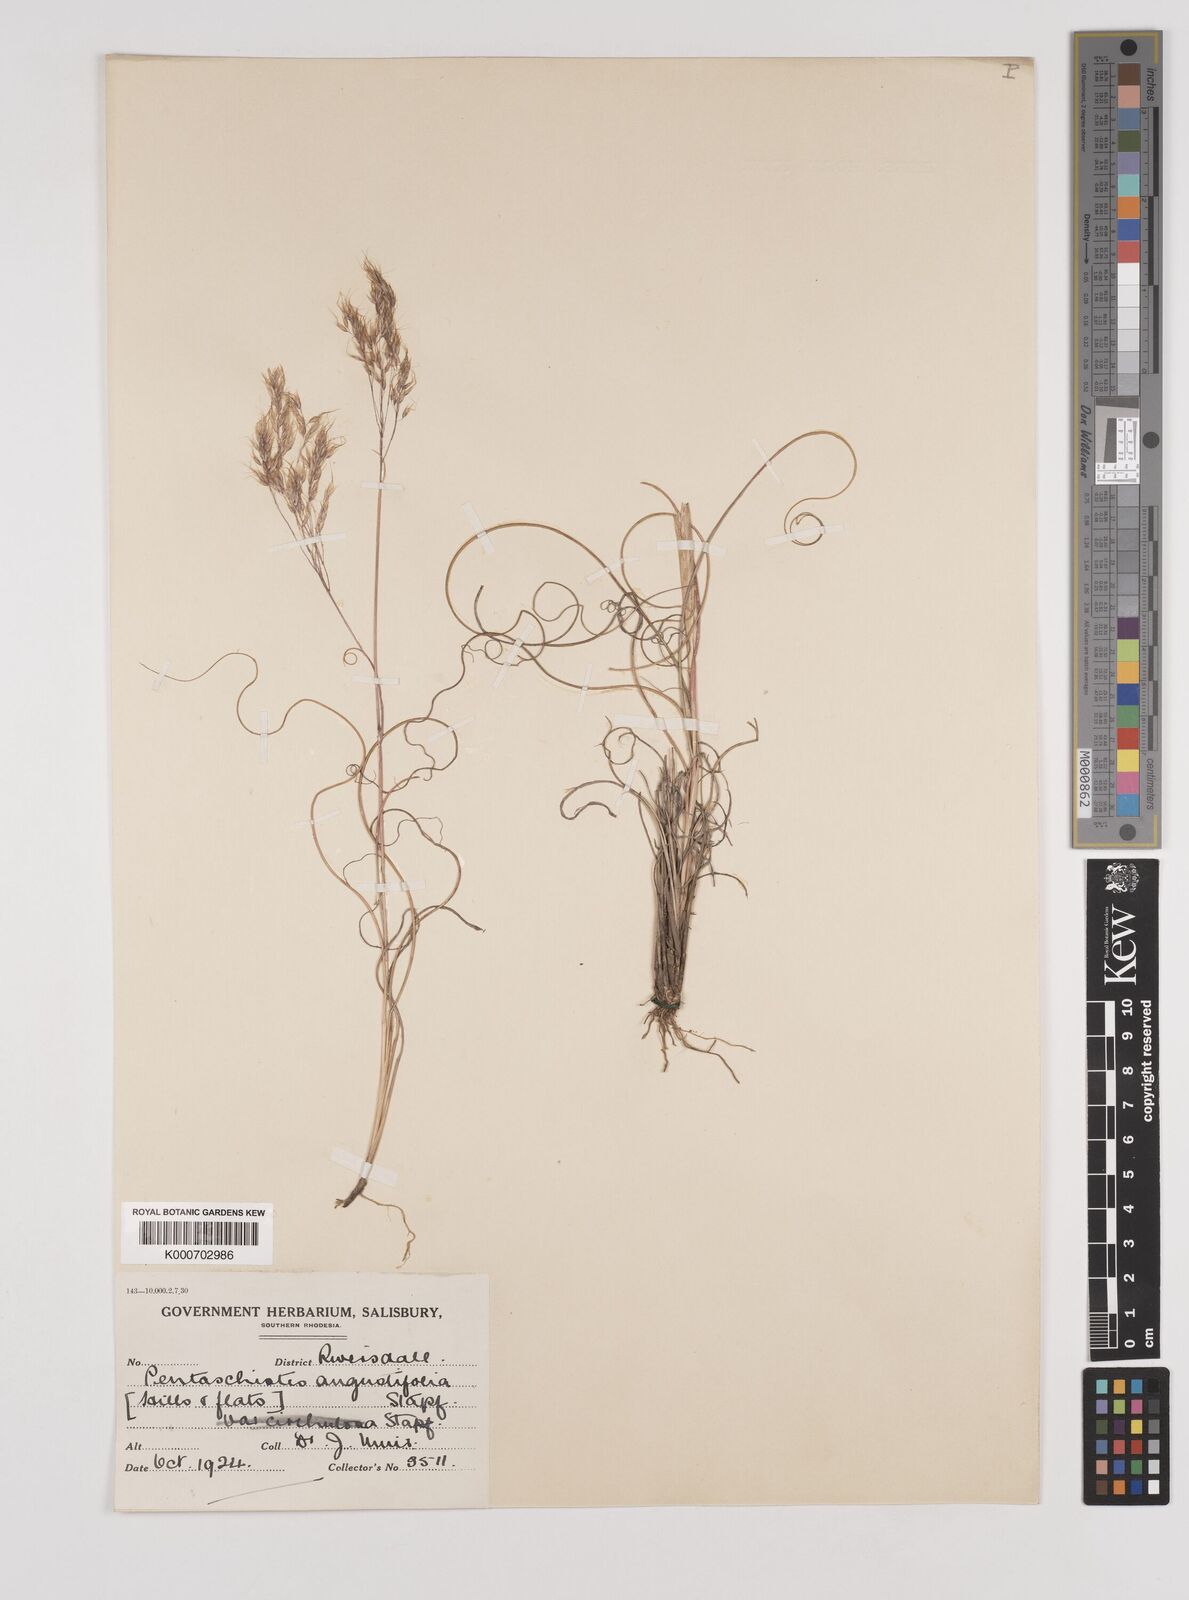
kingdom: Plantae
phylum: Tracheophyta
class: Liliopsida
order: Poales
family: Poaceae
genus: Pentameris
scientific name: Pentameris pallida
